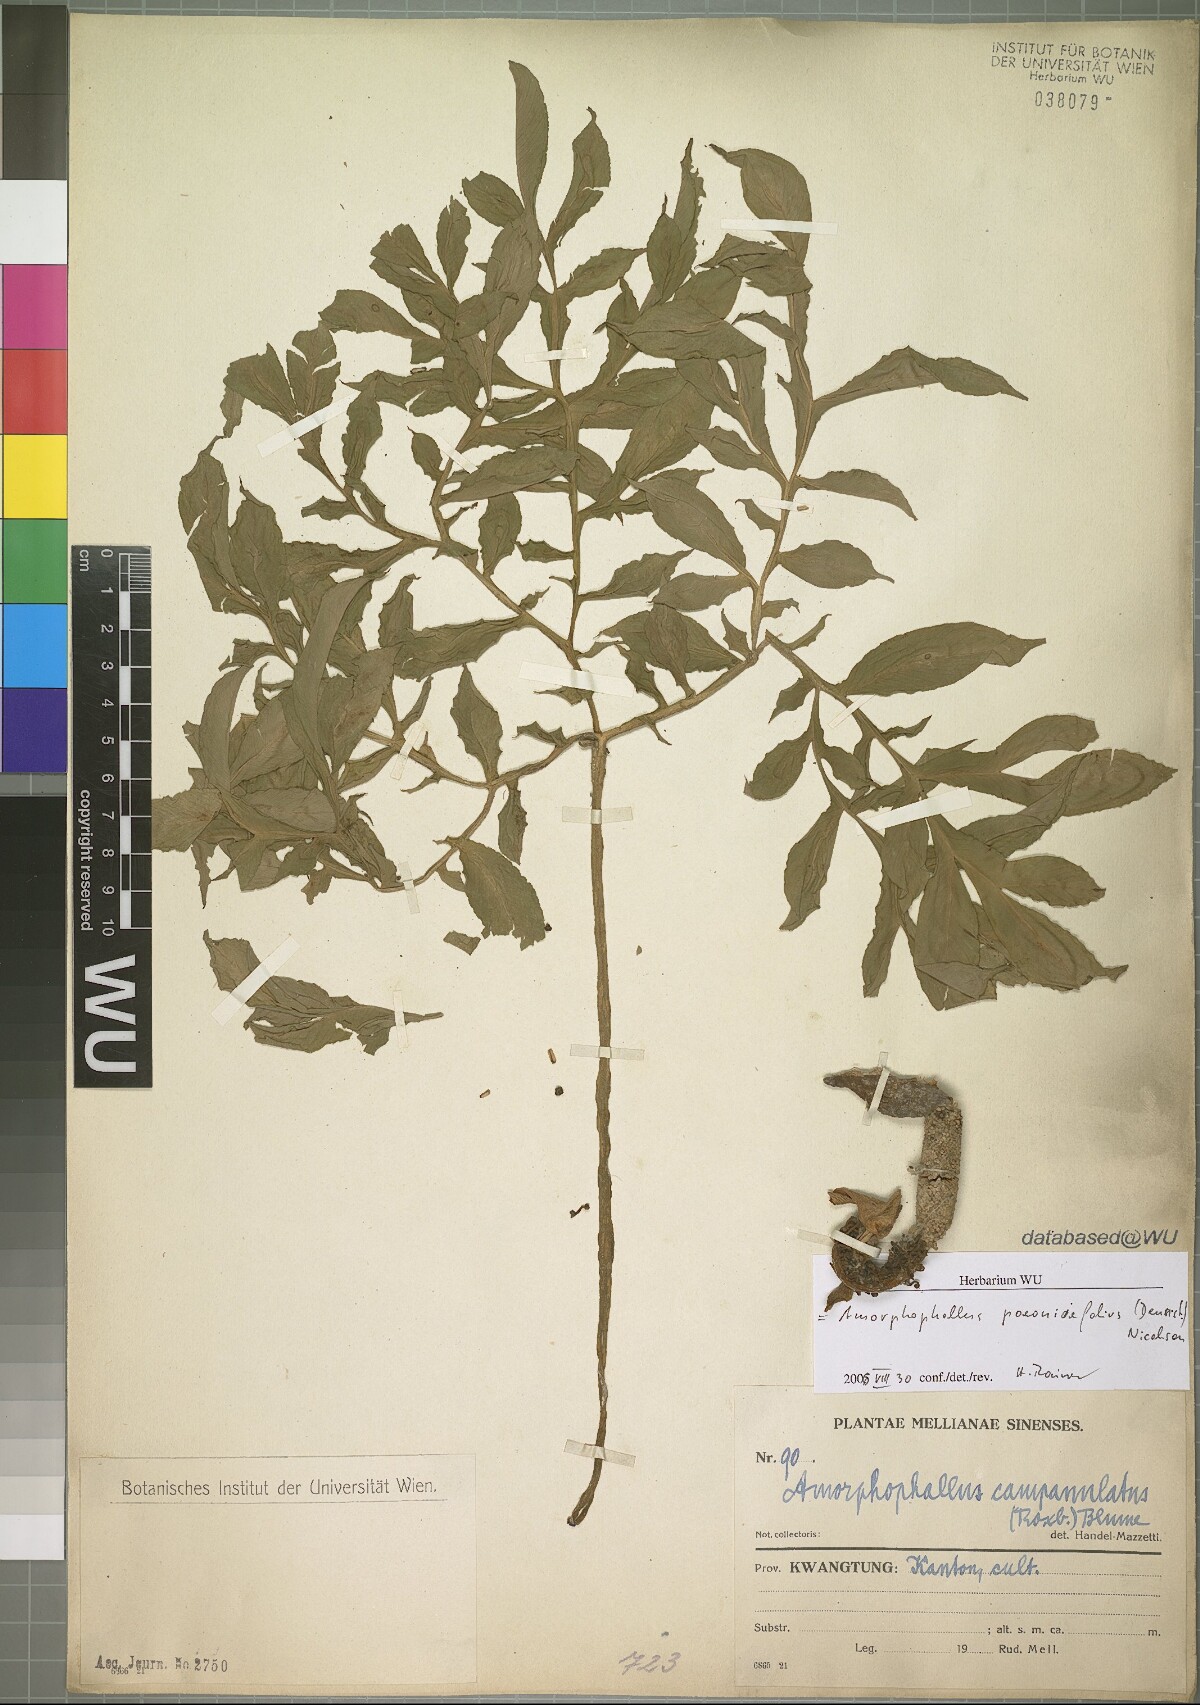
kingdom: Plantae
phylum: Tracheophyta
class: Liliopsida
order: Alismatales
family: Araceae
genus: Amorphophallus
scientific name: Amorphophallus paeoniifolius
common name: Telinga-potato
